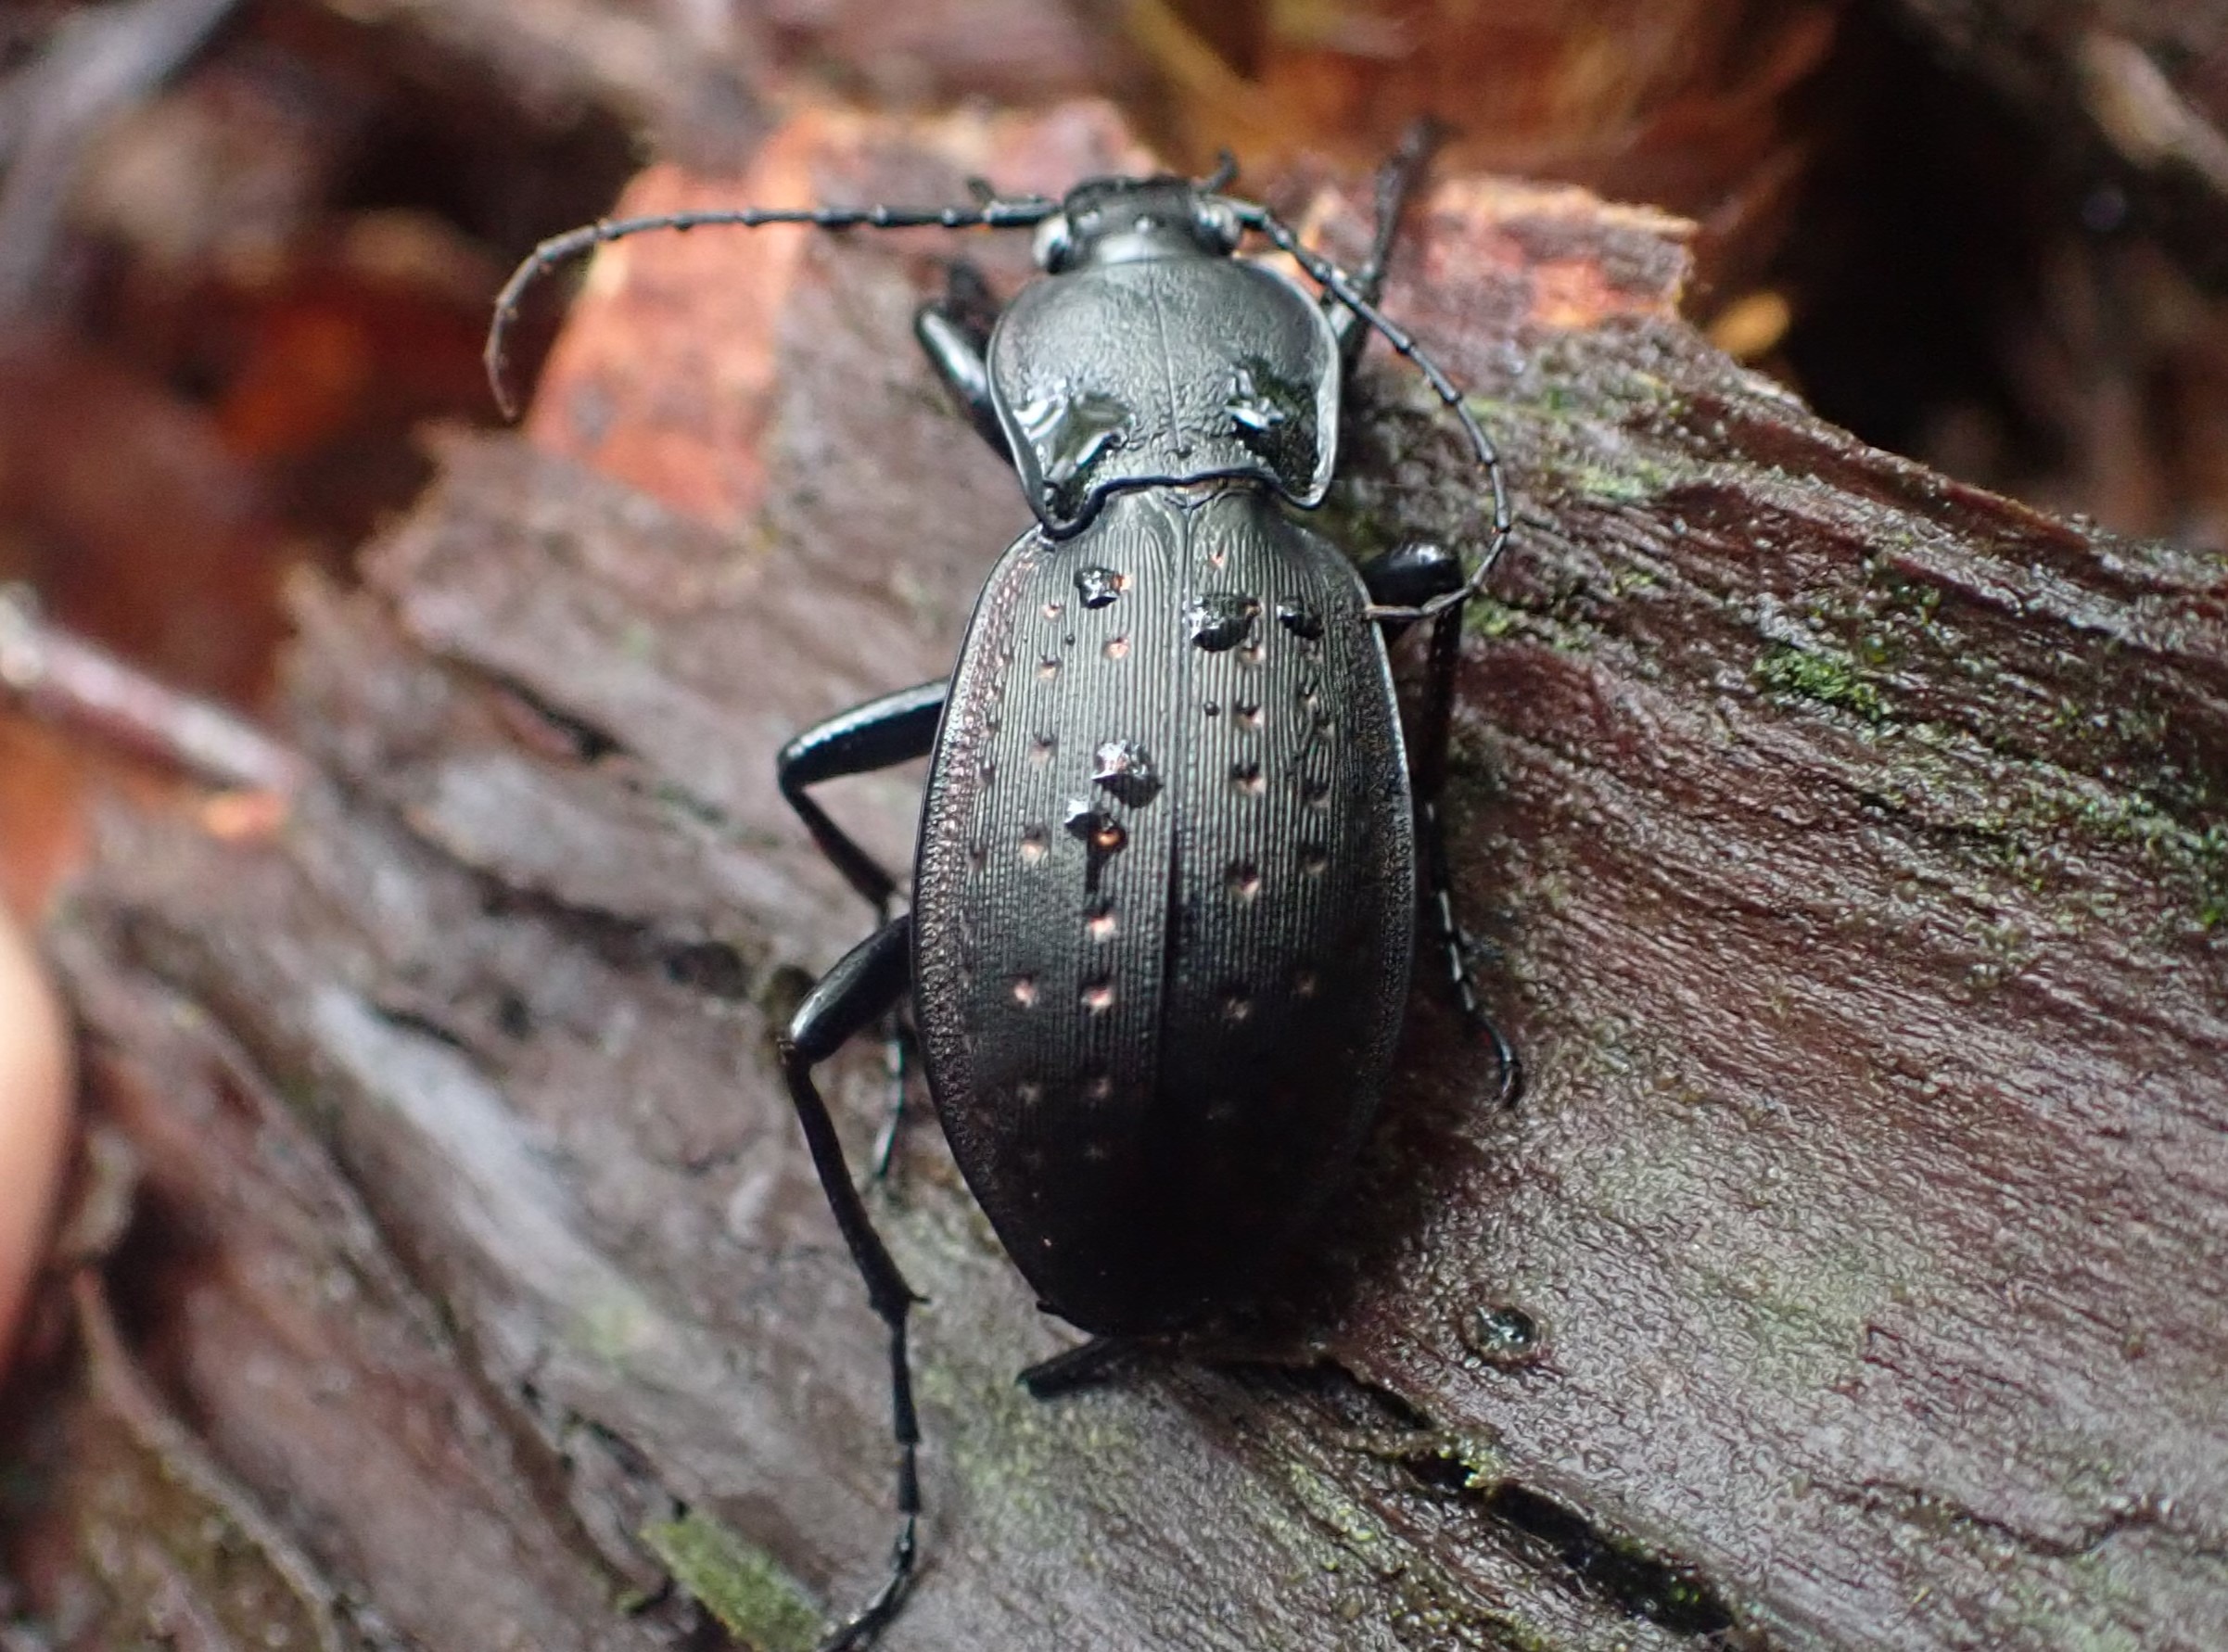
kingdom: Animalia
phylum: Arthropoda
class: Insecta
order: Coleoptera
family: Carabidae
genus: Carabus
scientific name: Carabus hortensis
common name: Guldpletløber
